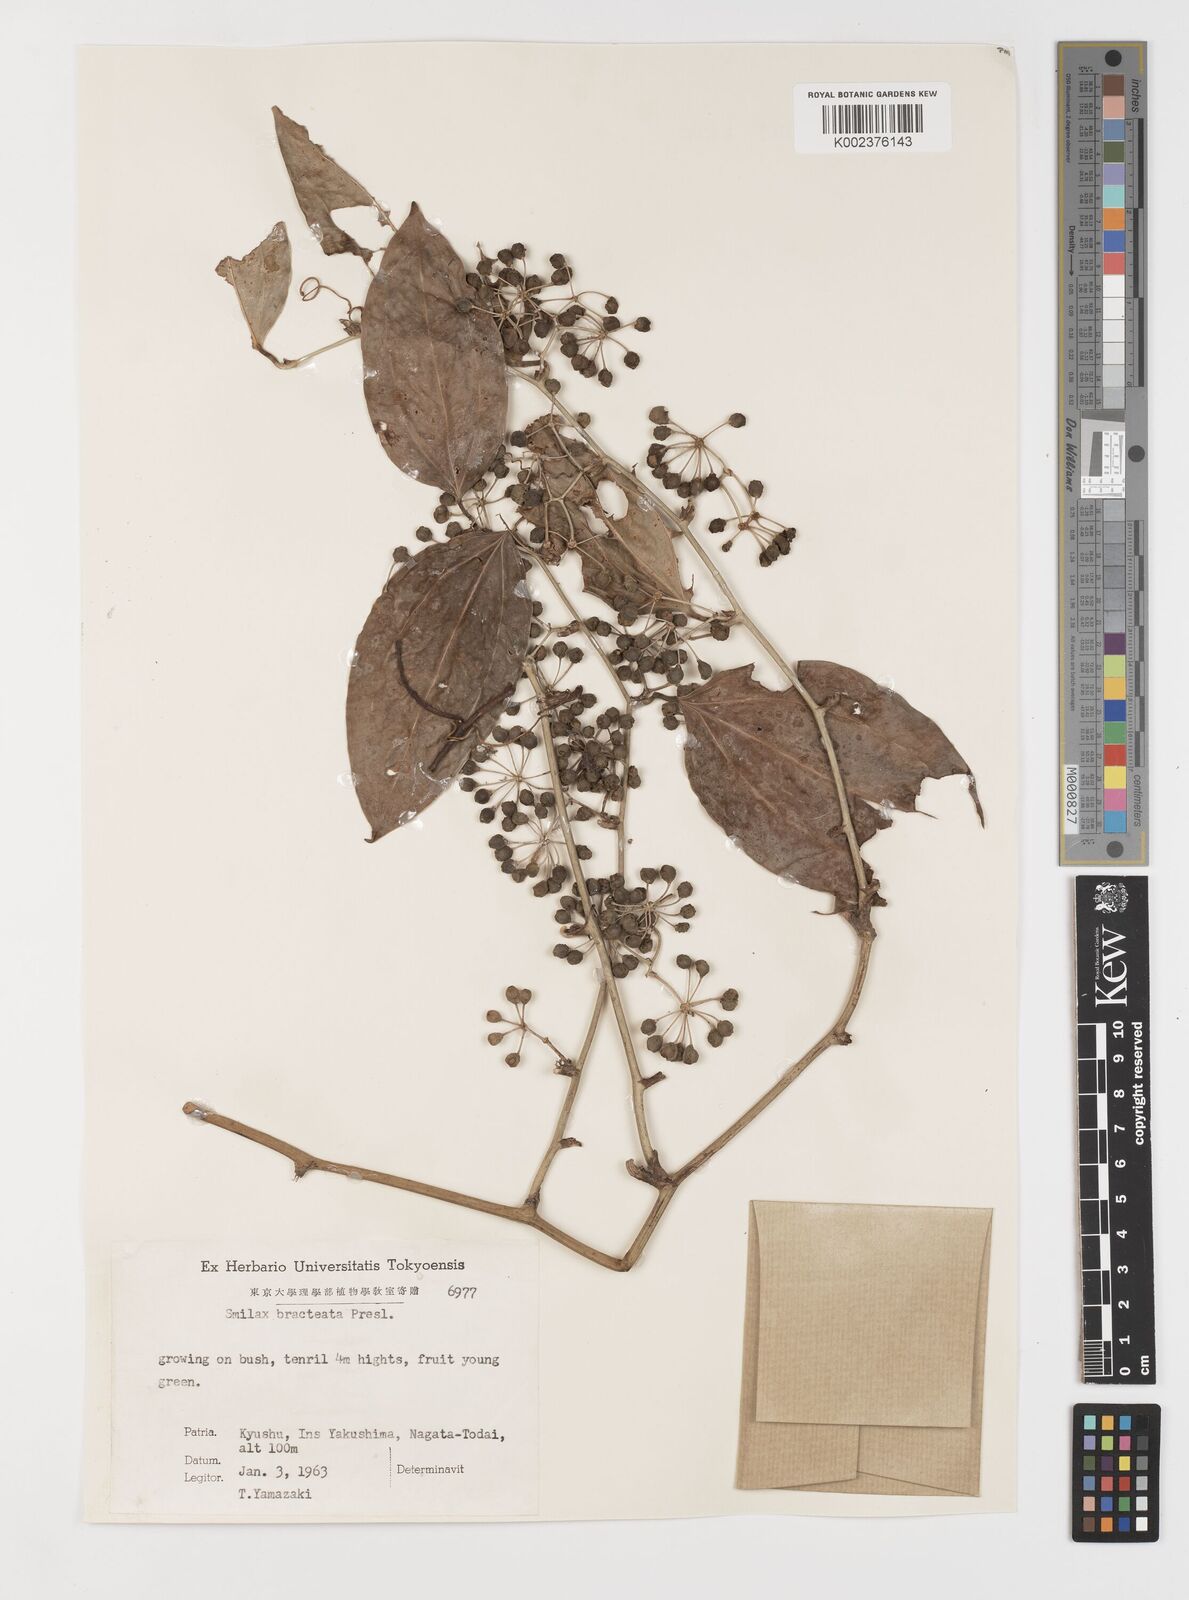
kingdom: Plantae
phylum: Tracheophyta
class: Liliopsida
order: Liliales
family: Smilacaceae
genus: Smilax
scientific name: Smilax bracteata
